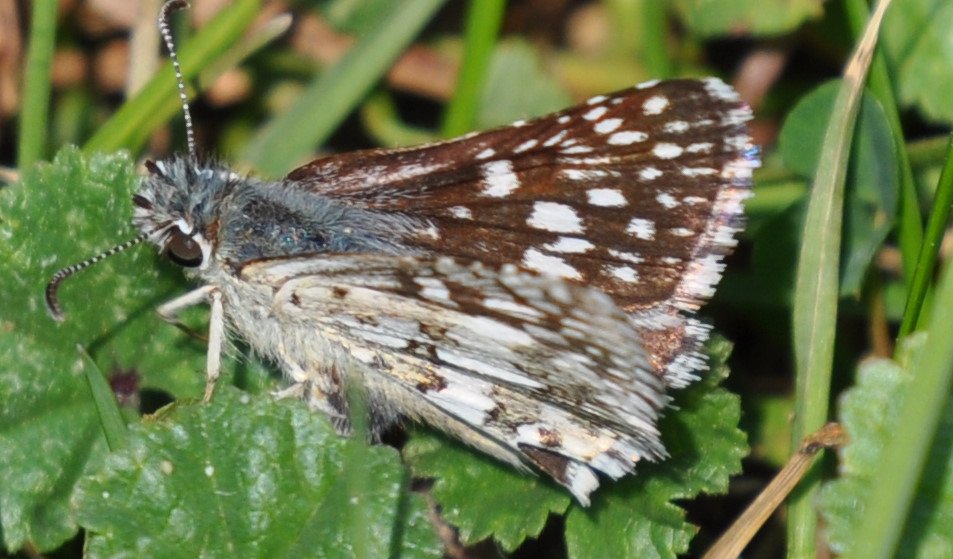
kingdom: Animalia
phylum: Arthropoda
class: Insecta
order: Lepidoptera
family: Hesperiidae
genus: Pyrgus
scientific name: Pyrgus communis
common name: Common Checkered-Skipper
